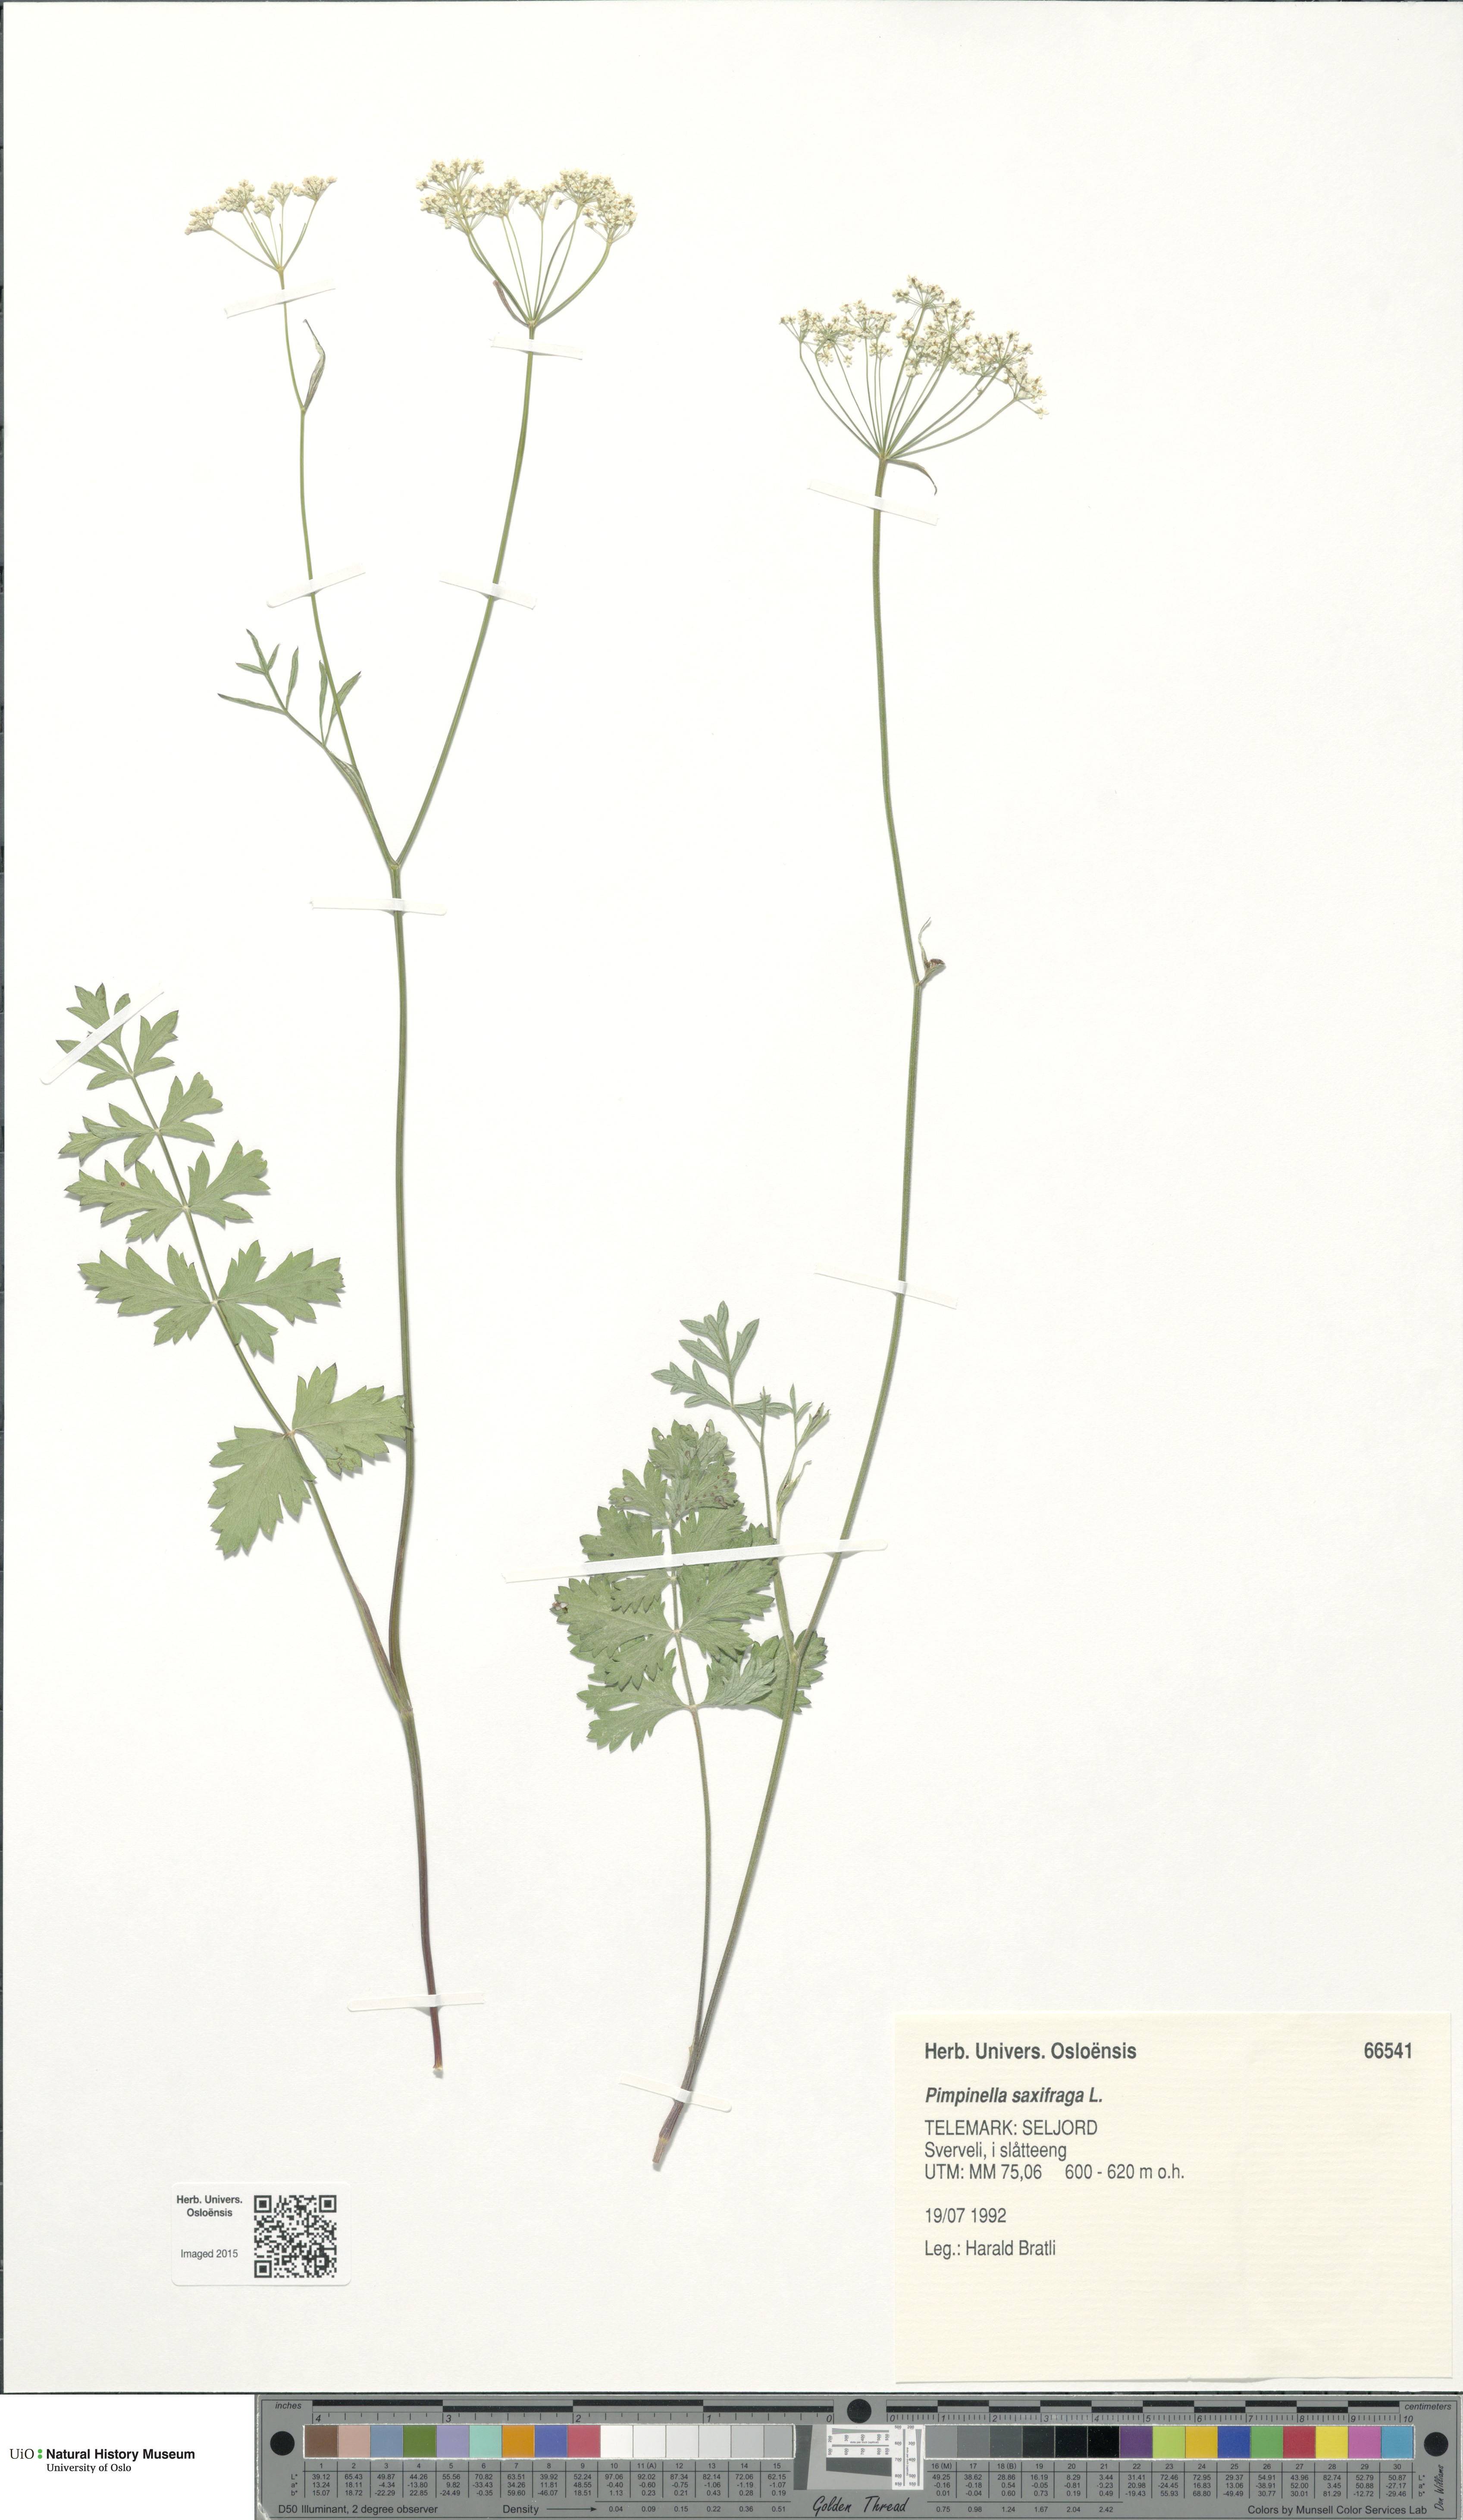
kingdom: Plantae
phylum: Tracheophyta
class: Magnoliopsida
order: Apiales
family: Apiaceae
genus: Pimpinella
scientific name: Pimpinella saxifraga
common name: Burnet-saxifrage
